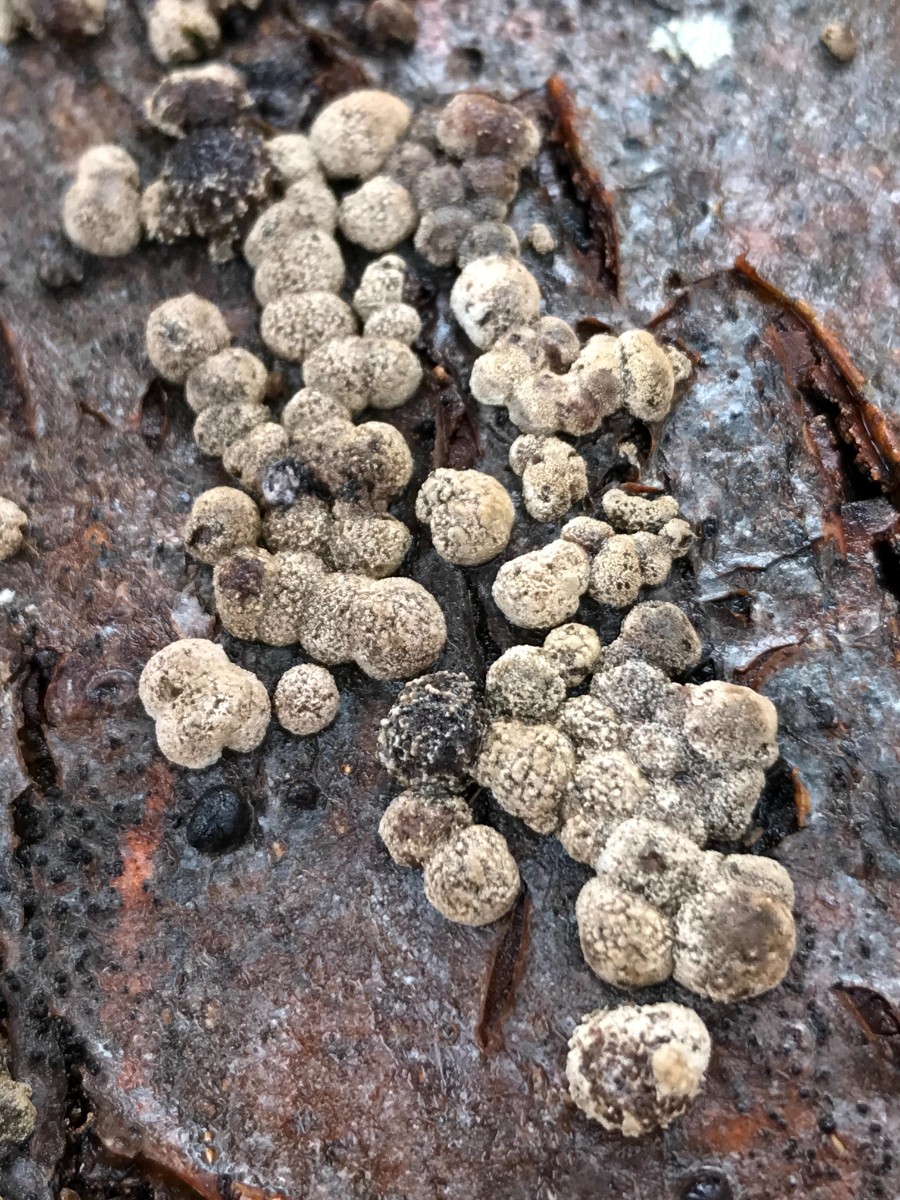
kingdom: Fungi
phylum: Ascomycota
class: Sordariomycetes
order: Xylariales
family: Hypoxylaceae
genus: Hypoxylon
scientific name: Hypoxylon fragiforme
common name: kuljordbær
